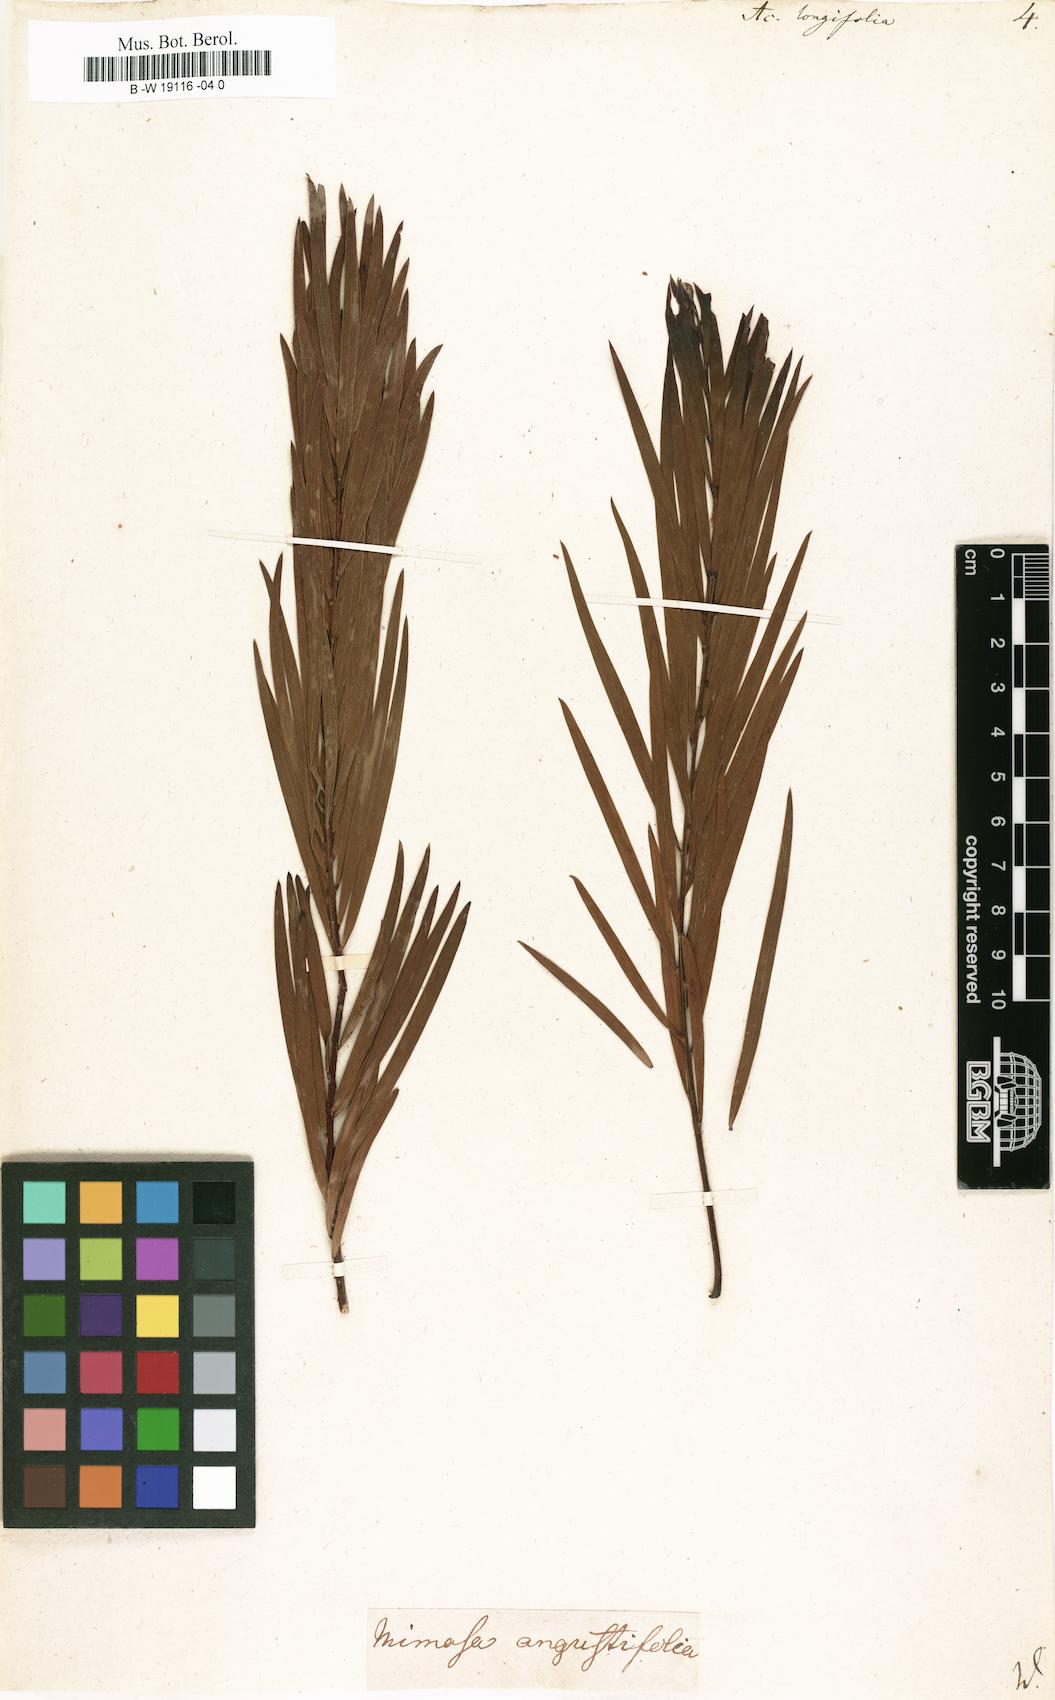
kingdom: Plantae
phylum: Tracheophyta
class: Magnoliopsida
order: Fabales
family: Fabaceae
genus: Acacia
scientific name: Acacia longifolia
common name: Sydney golden wattle
